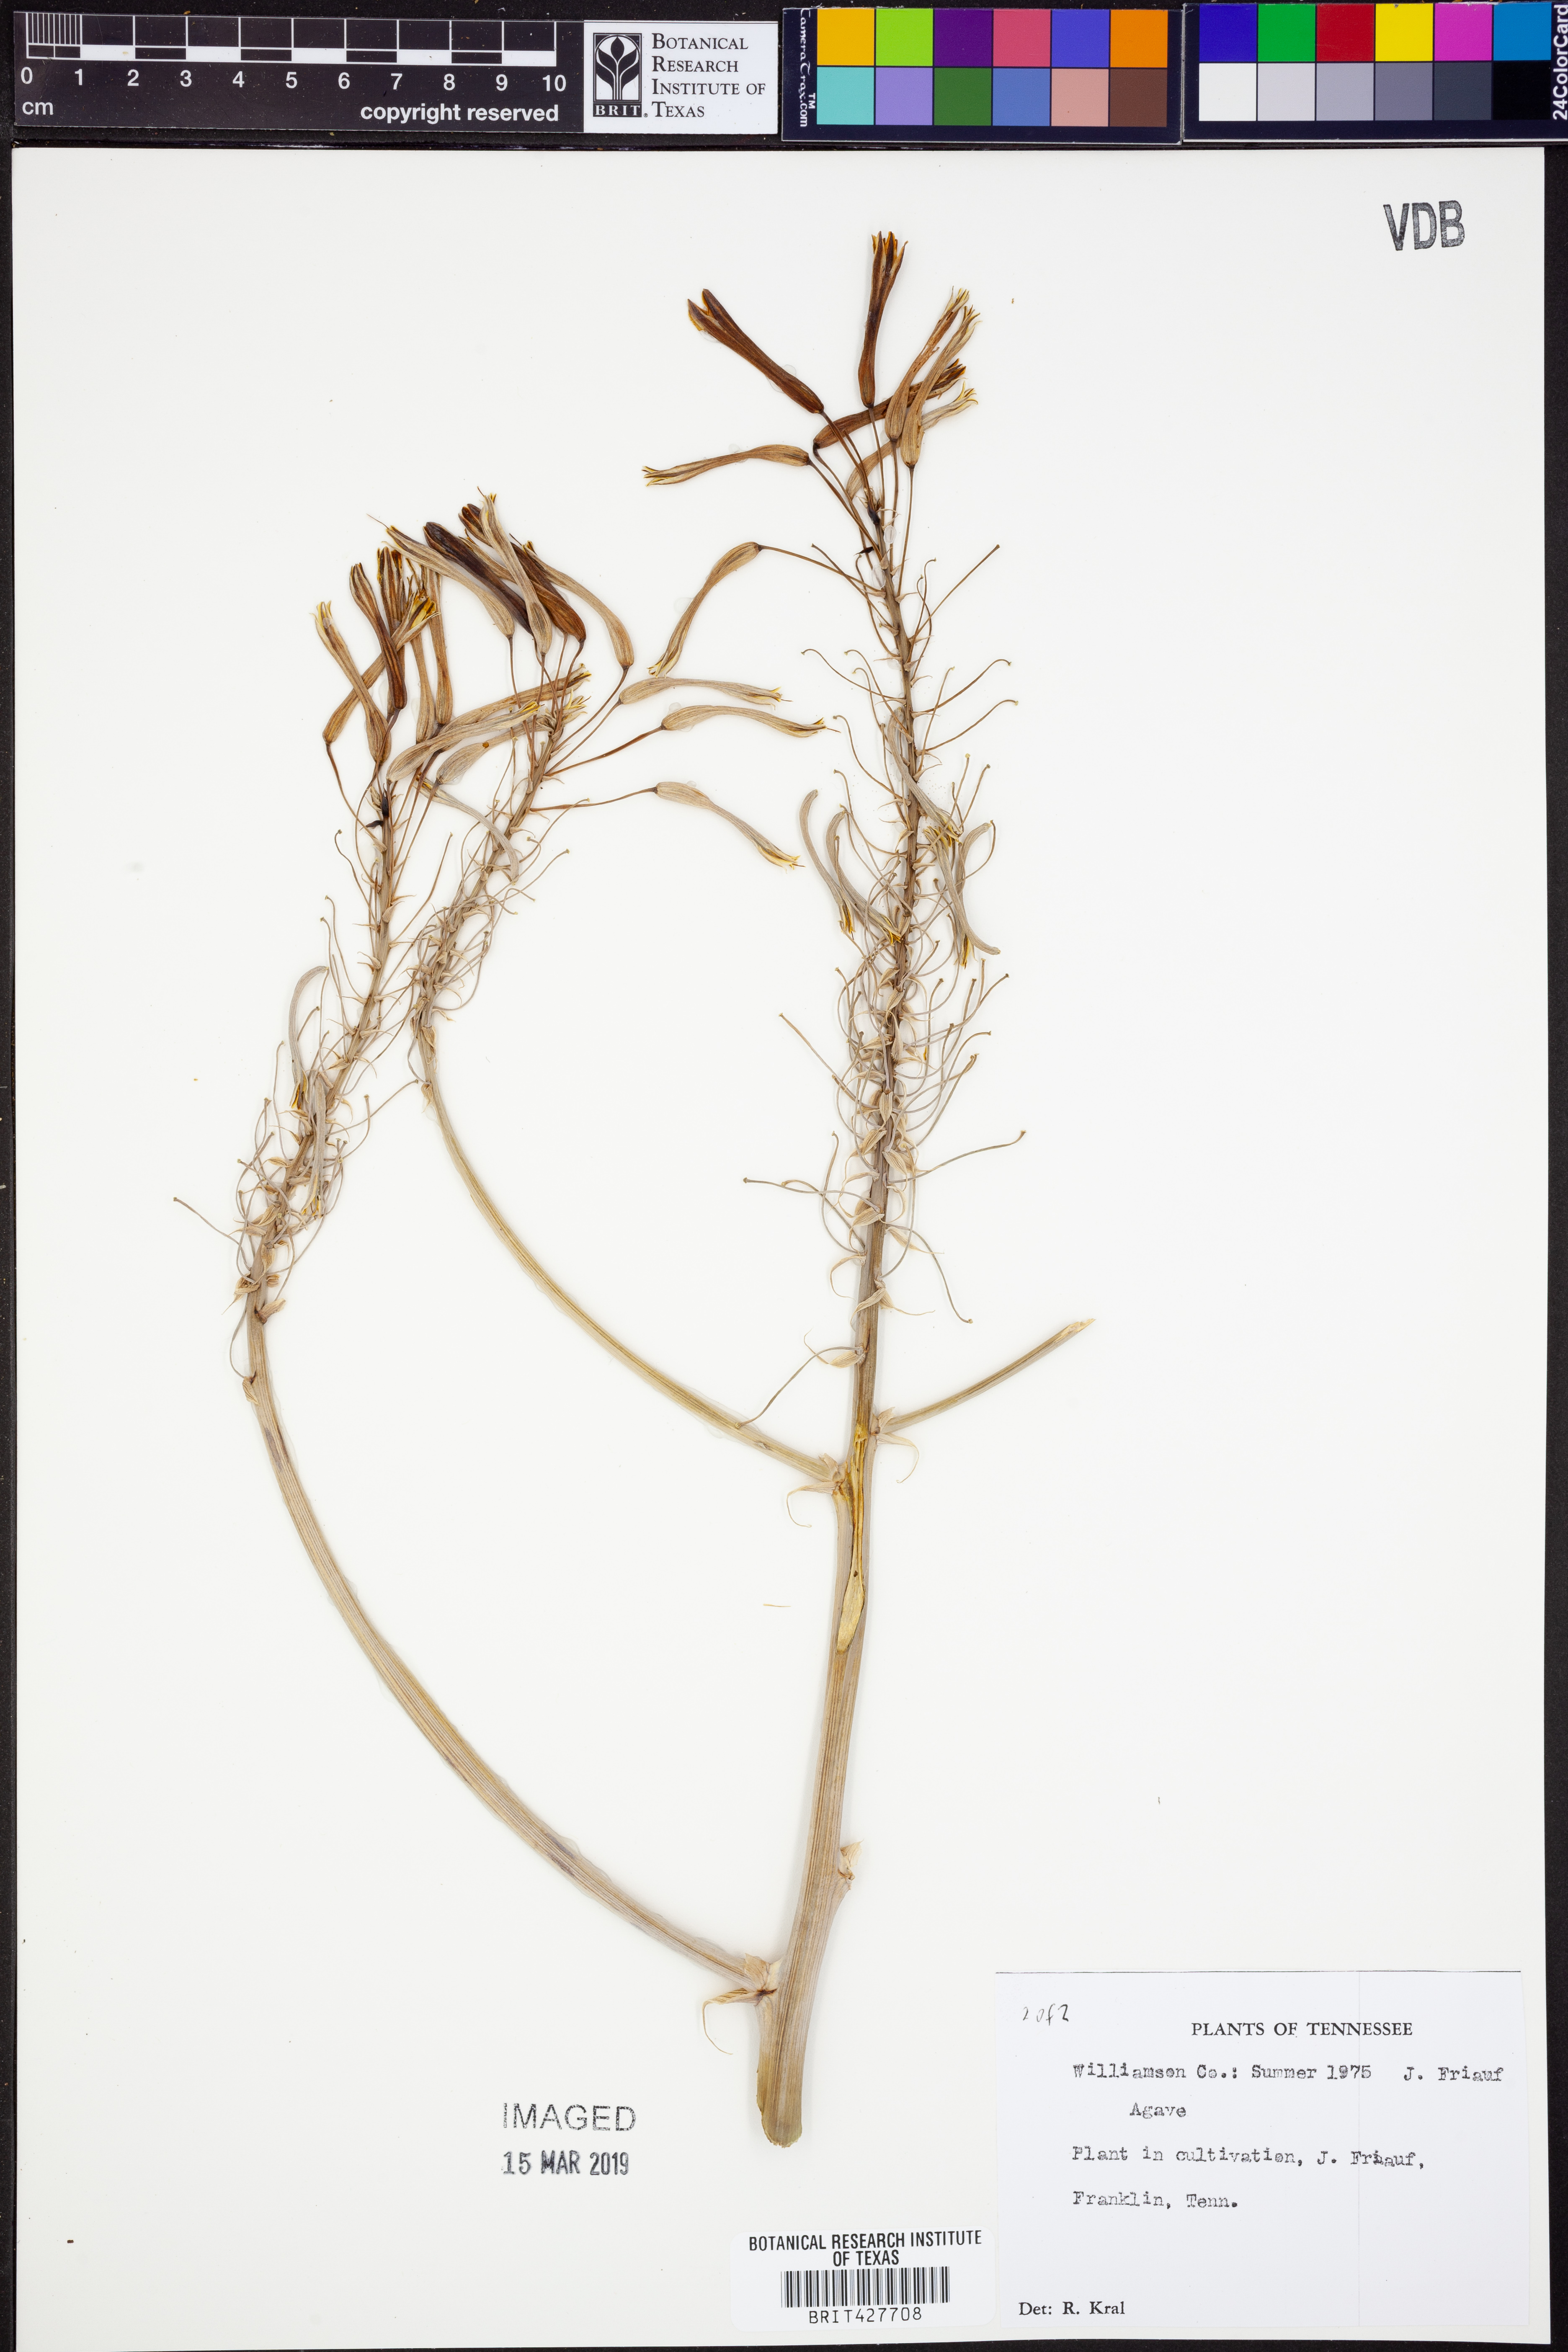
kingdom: Plantae
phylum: Tracheophyta
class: Liliopsida
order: Asparagales
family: Asparagaceae
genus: Agave
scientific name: Agave
